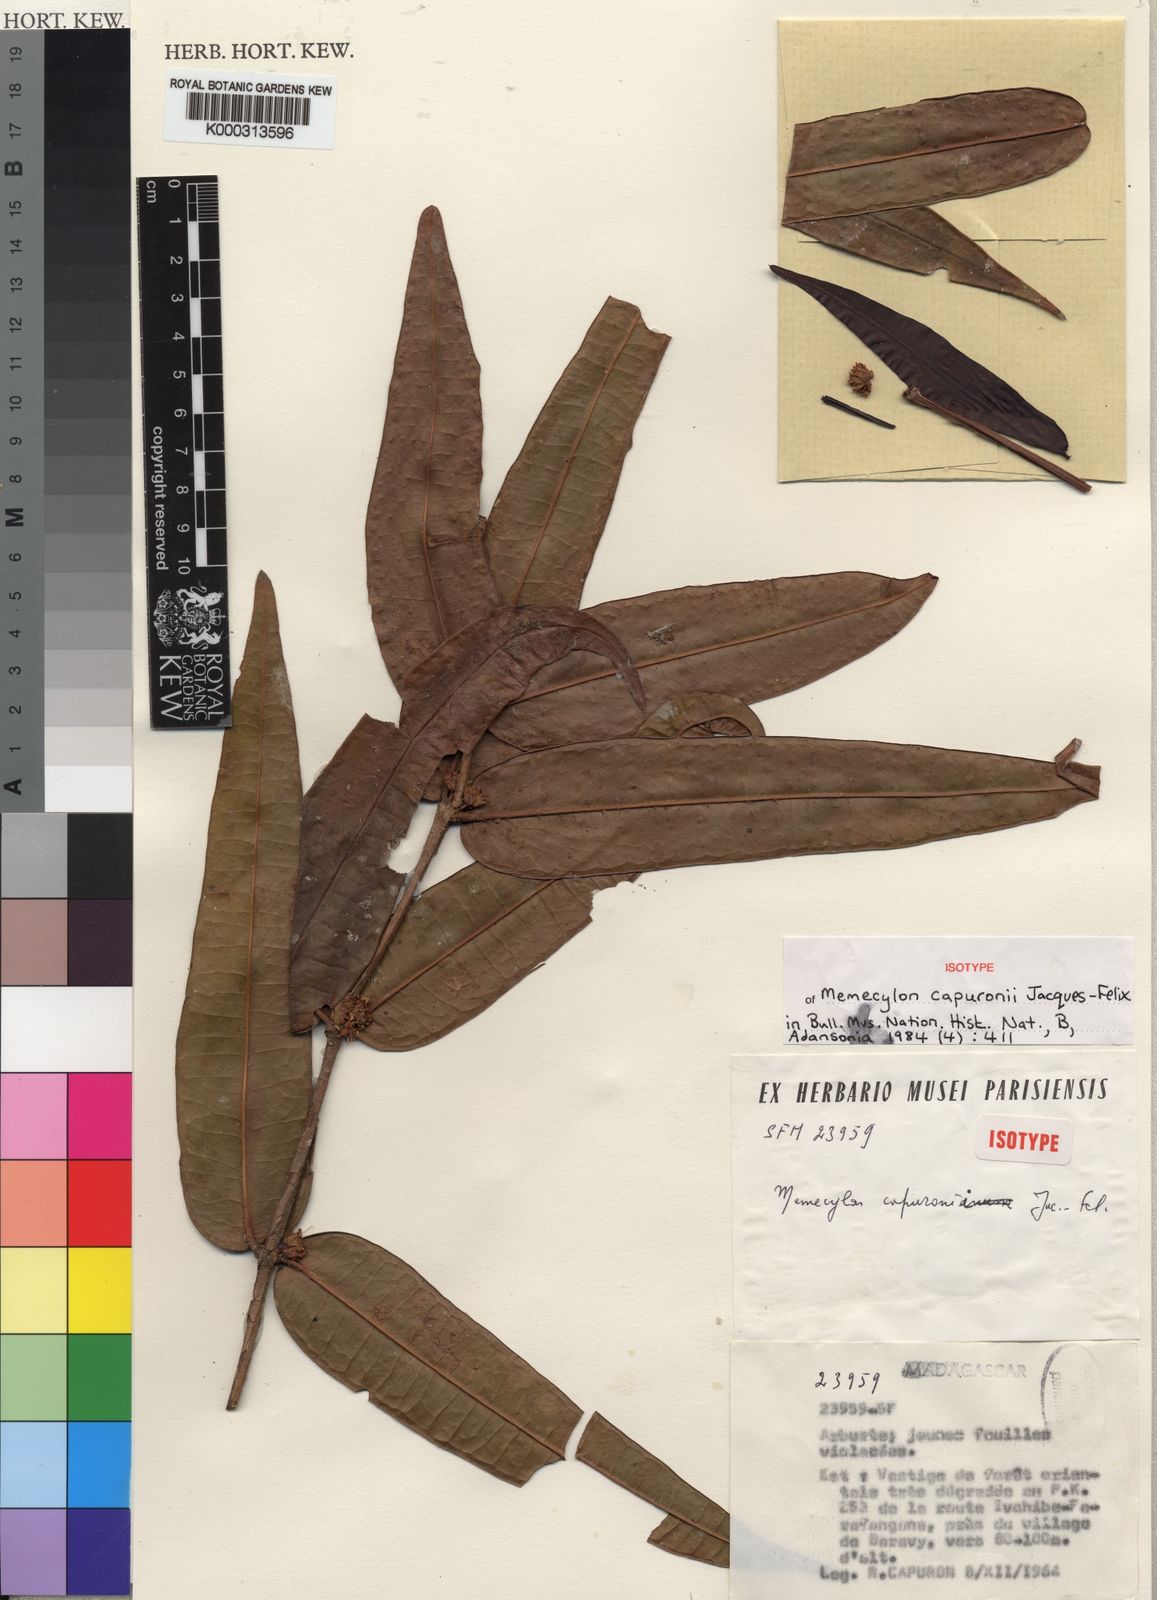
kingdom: Plantae
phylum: Tracheophyta
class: Magnoliopsida
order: Myrtales
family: Melastomataceae
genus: Memecylon
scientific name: Memecylon
